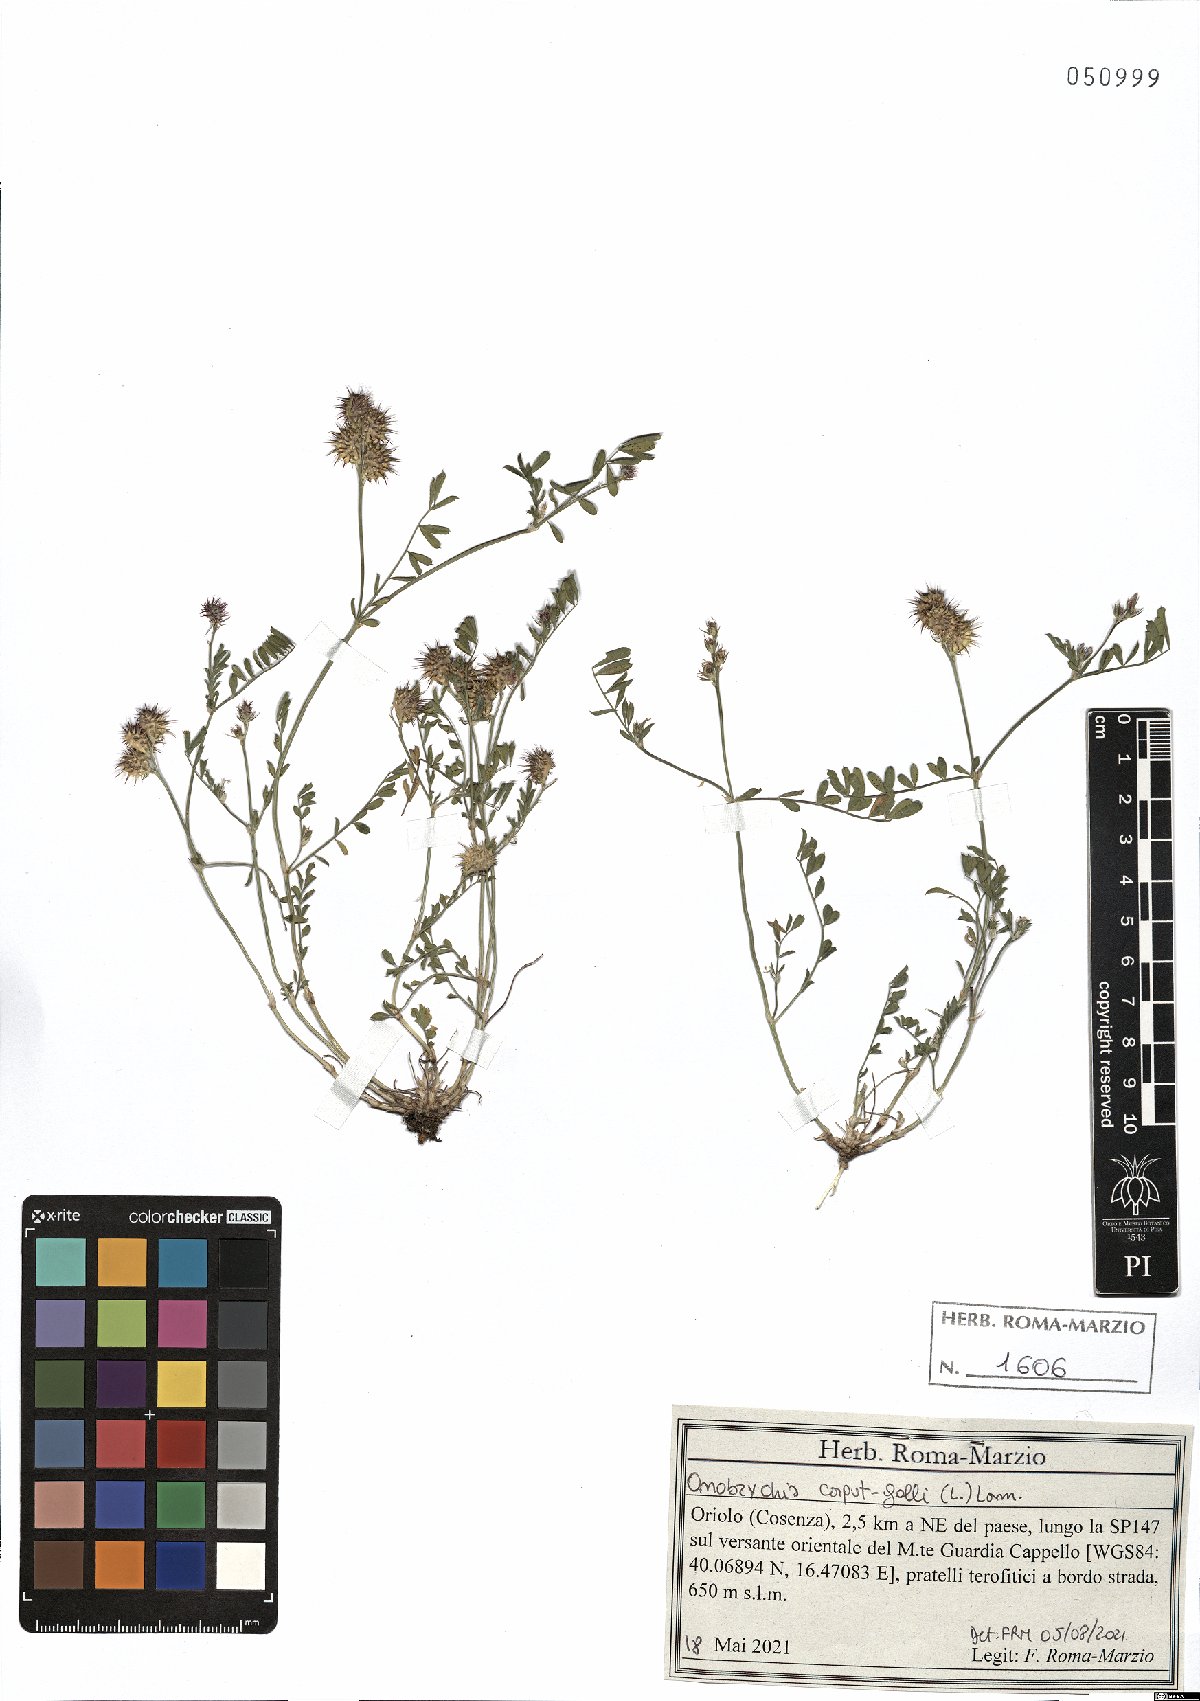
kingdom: Plantae
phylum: Tracheophyta
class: Magnoliopsida
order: Fabales
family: Fabaceae
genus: Onobrychis
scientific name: Onobrychis caput-galli
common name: Cockscomb sainfoin
